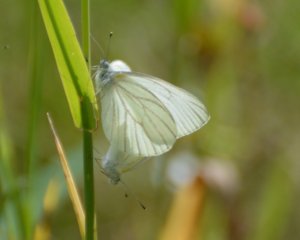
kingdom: Animalia
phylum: Arthropoda
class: Insecta
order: Lepidoptera
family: Pieridae
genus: Pieris
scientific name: Pieris oleracea
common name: Mustard White
